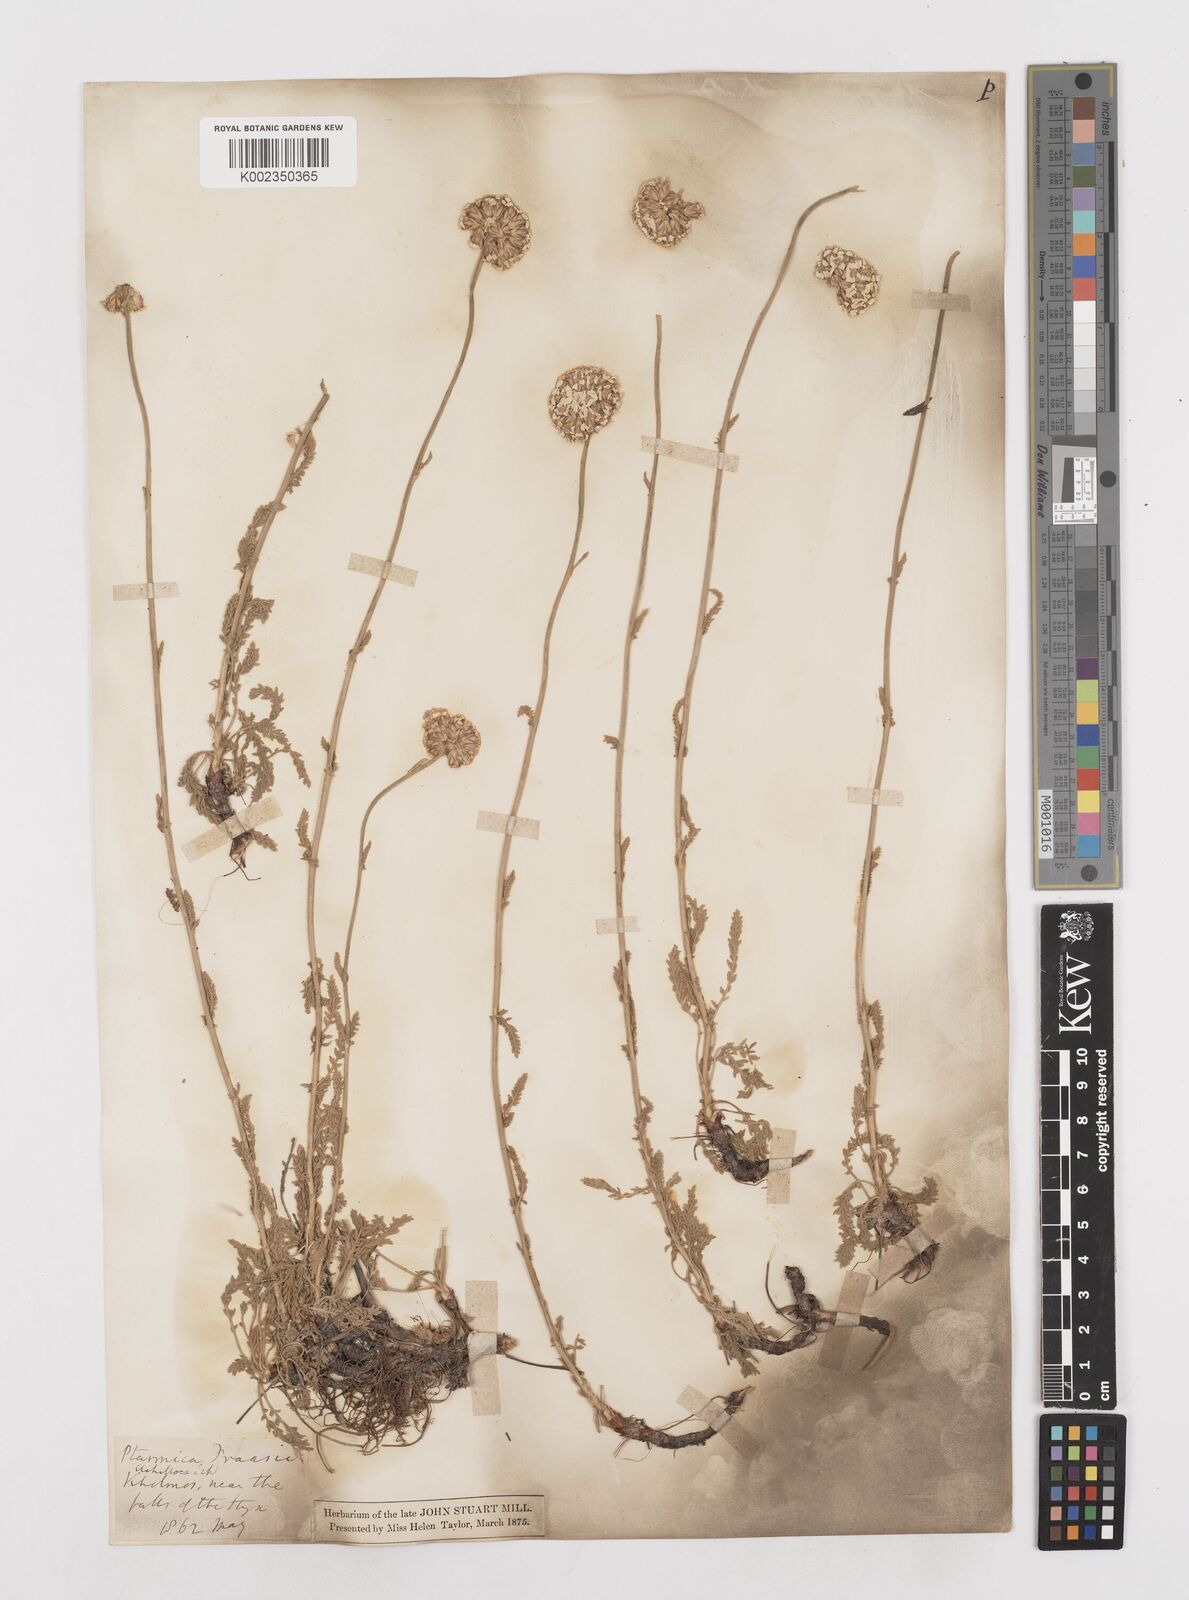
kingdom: Plantae
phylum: Tracheophyta
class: Magnoliopsida
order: Asterales
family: Asteraceae
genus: Achillea
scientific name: Achillea fraasii
